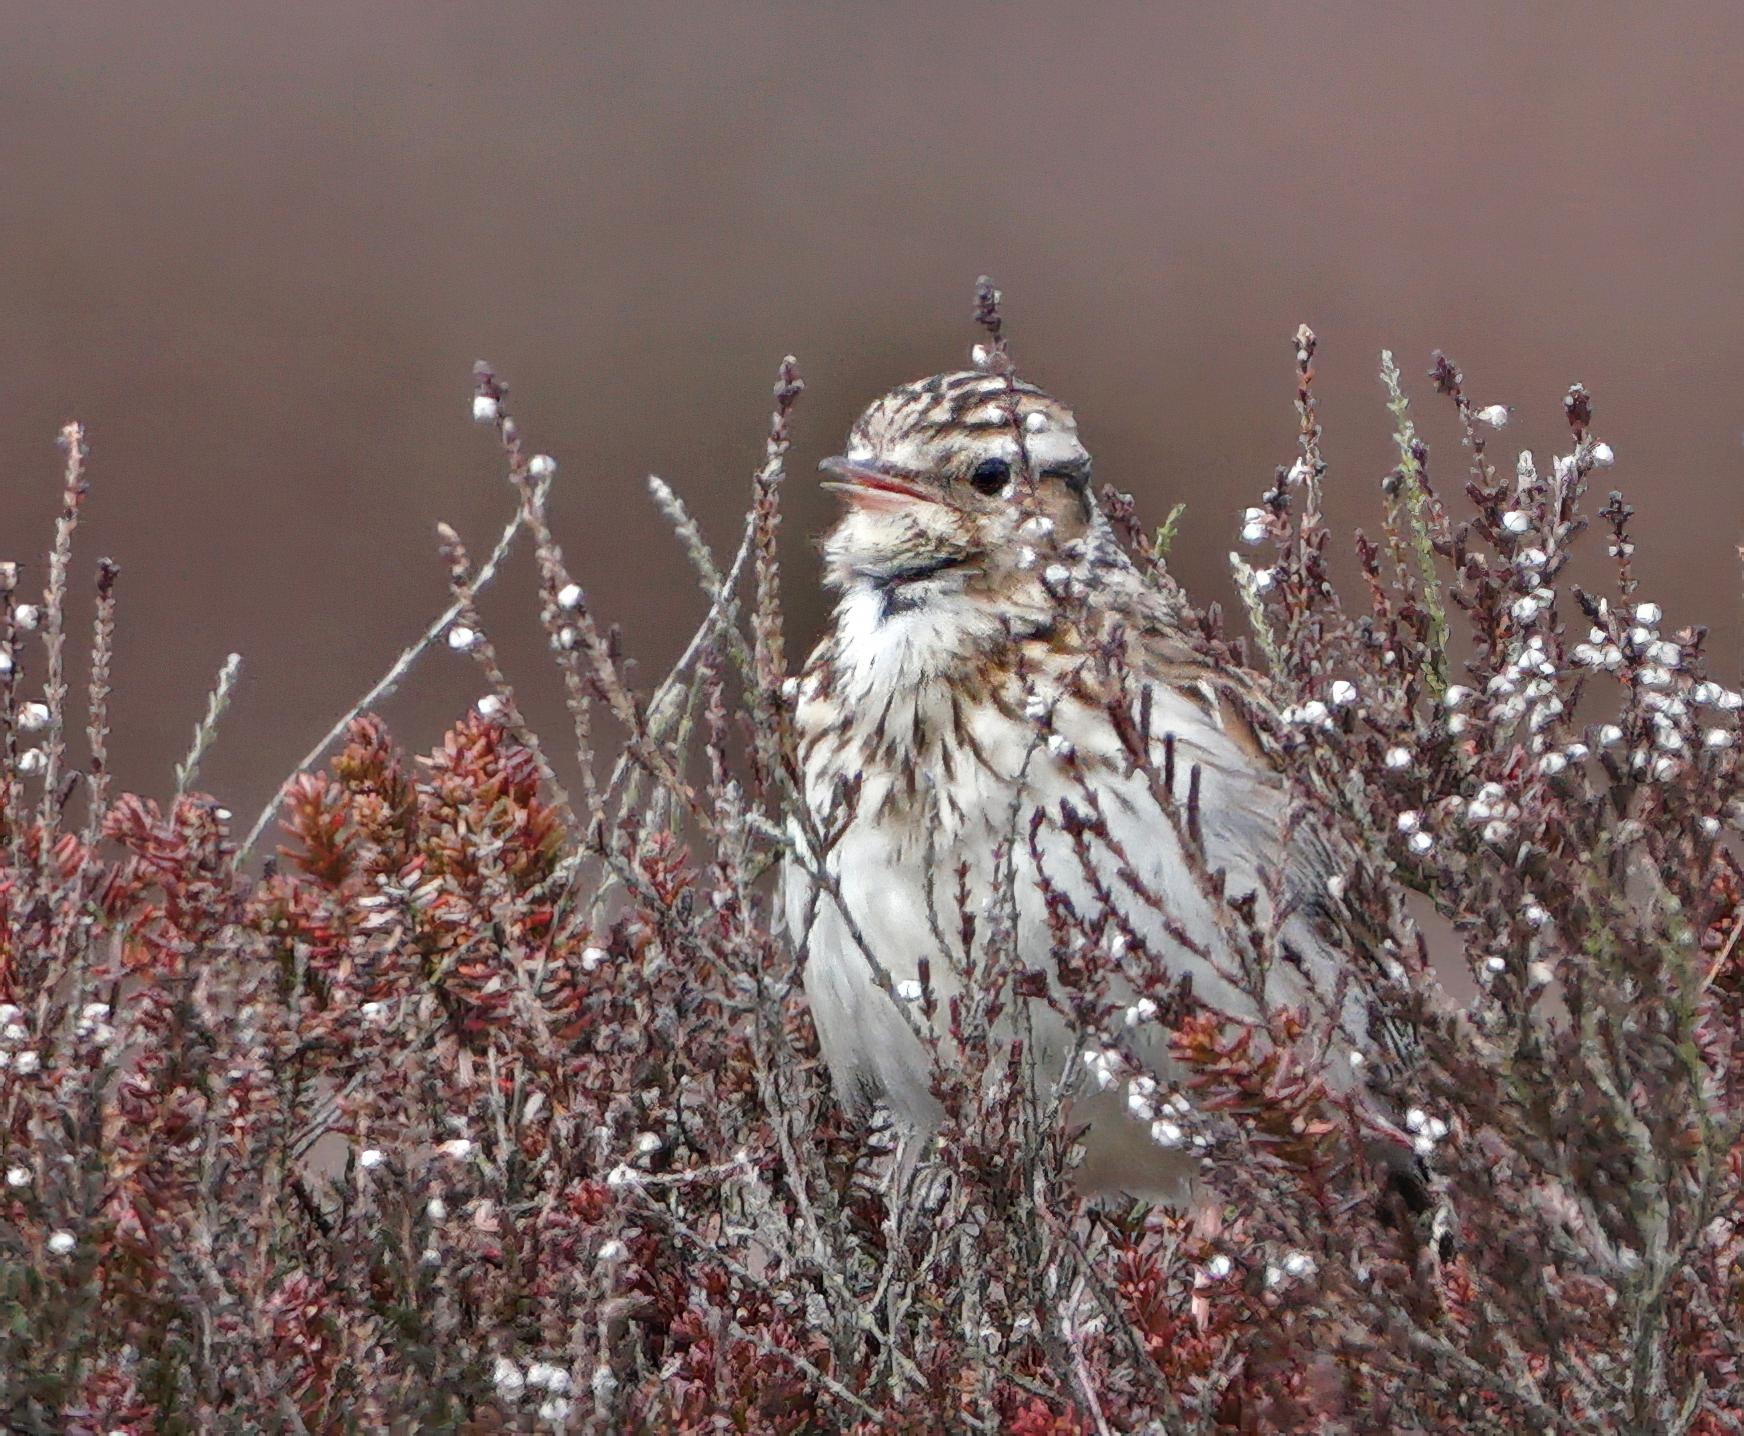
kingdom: Animalia
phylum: Chordata
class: Aves
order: Passeriformes
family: Alaudidae
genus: Lullula
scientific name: Lullula arborea
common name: Hedelærke
